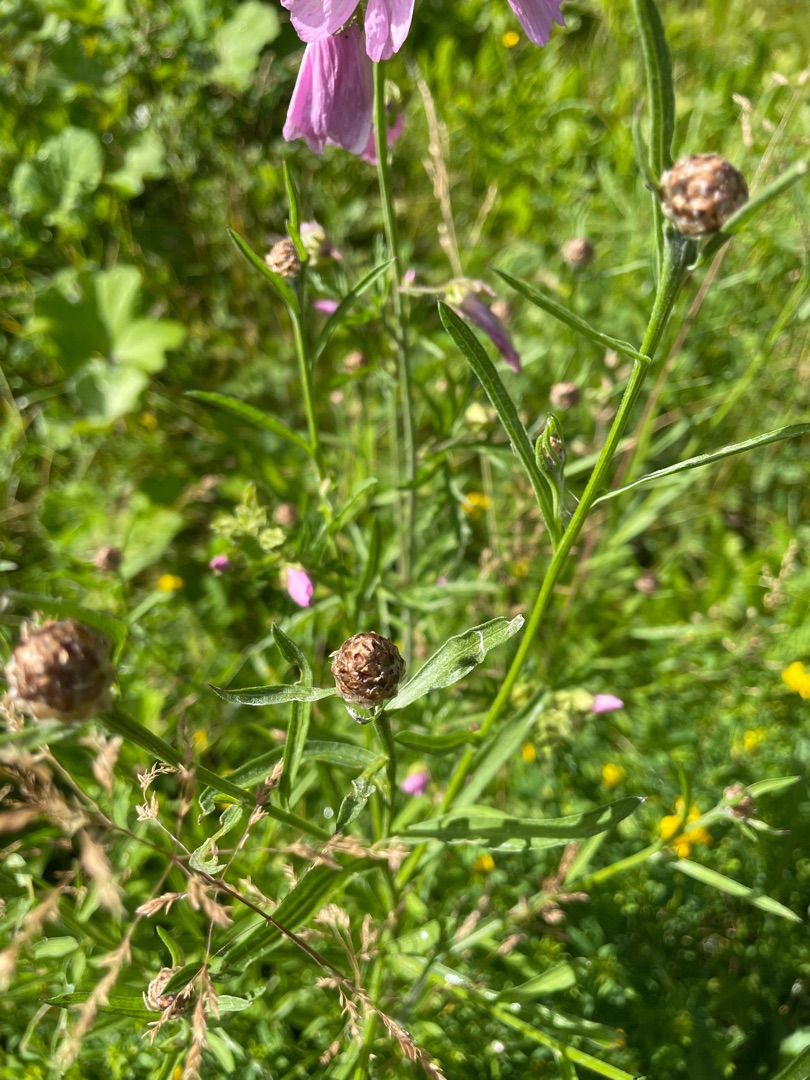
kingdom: Plantae
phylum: Tracheophyta
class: Magnoliopsida
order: Asterales
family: Asteraceae
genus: Centaurea
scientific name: Centaurea jacea
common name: Almindelig knopurt
